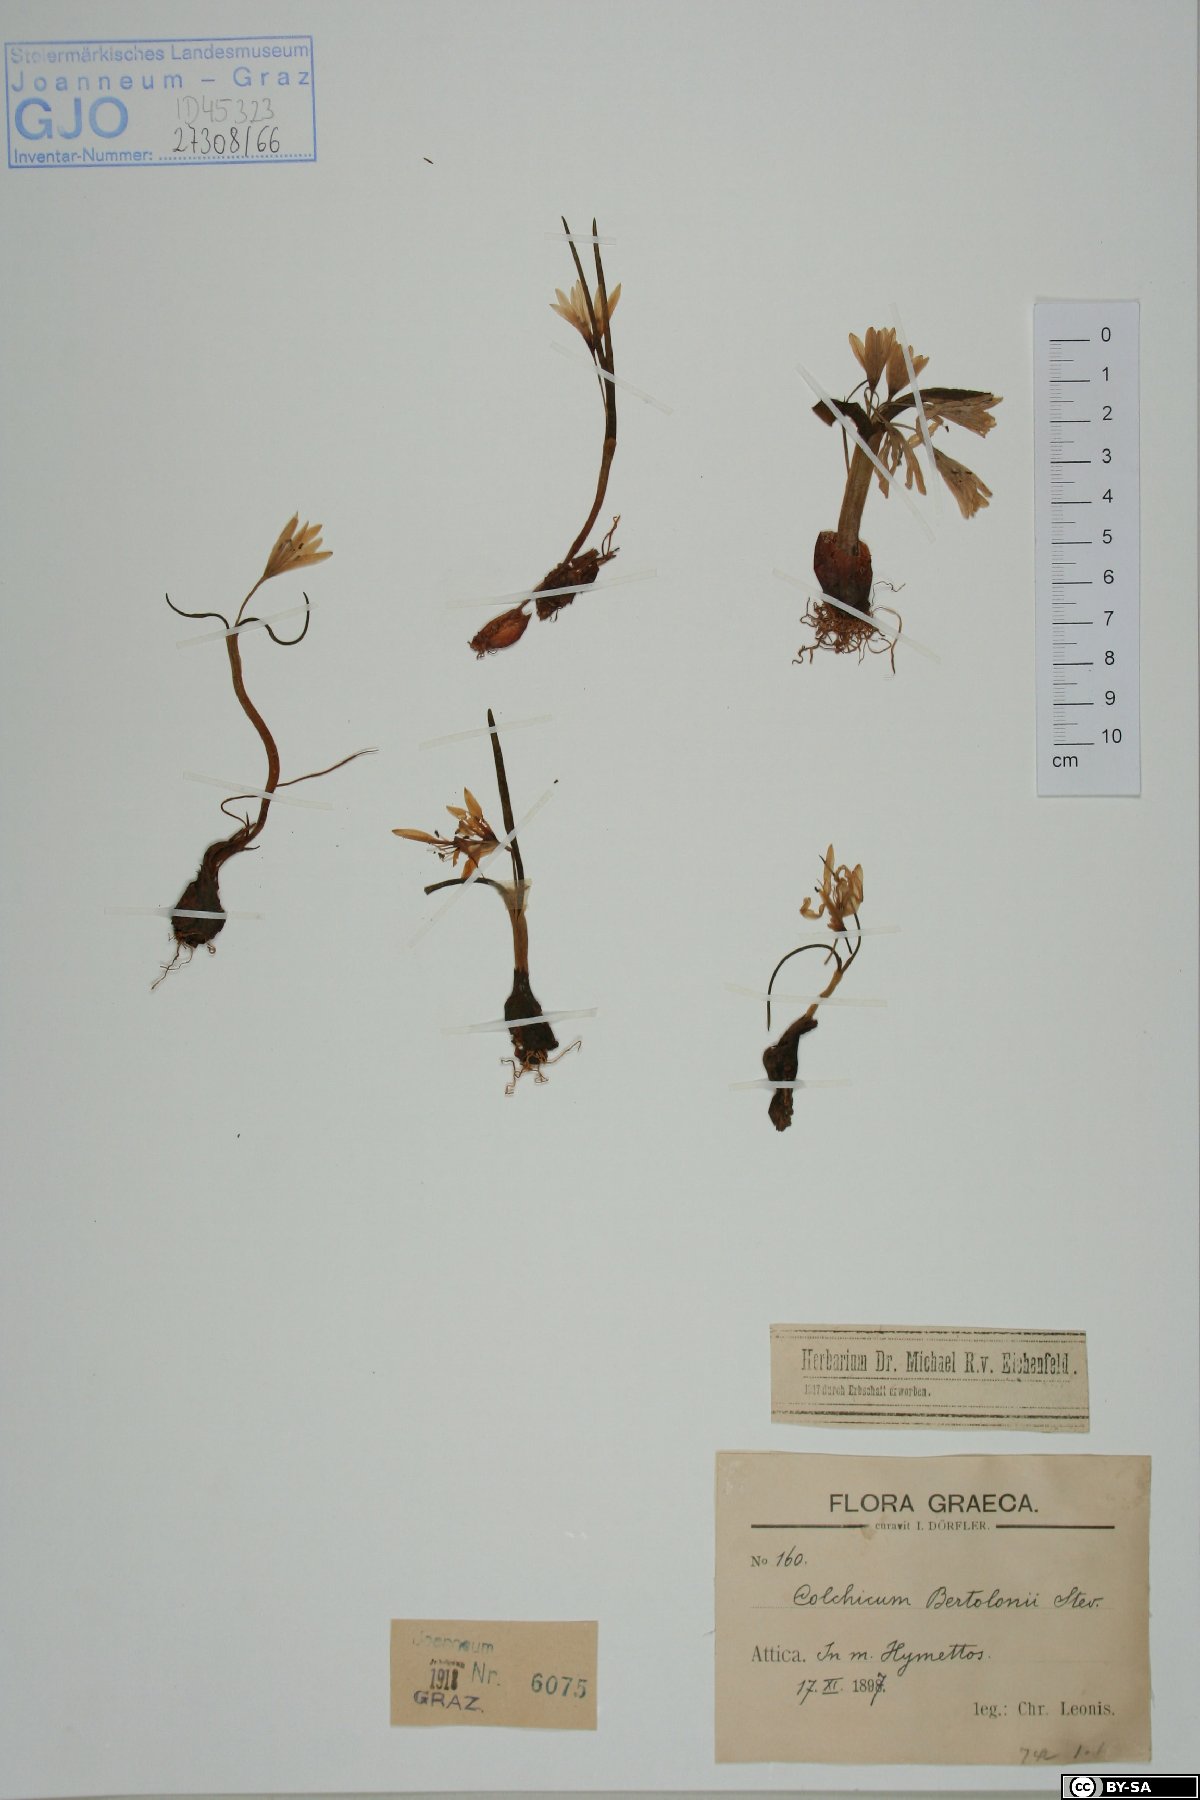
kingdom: Plantae
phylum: Tracheophyta
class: Liliopsida
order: Liliales
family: Colchicaceae
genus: Colchicum
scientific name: Colchicum cupanii
